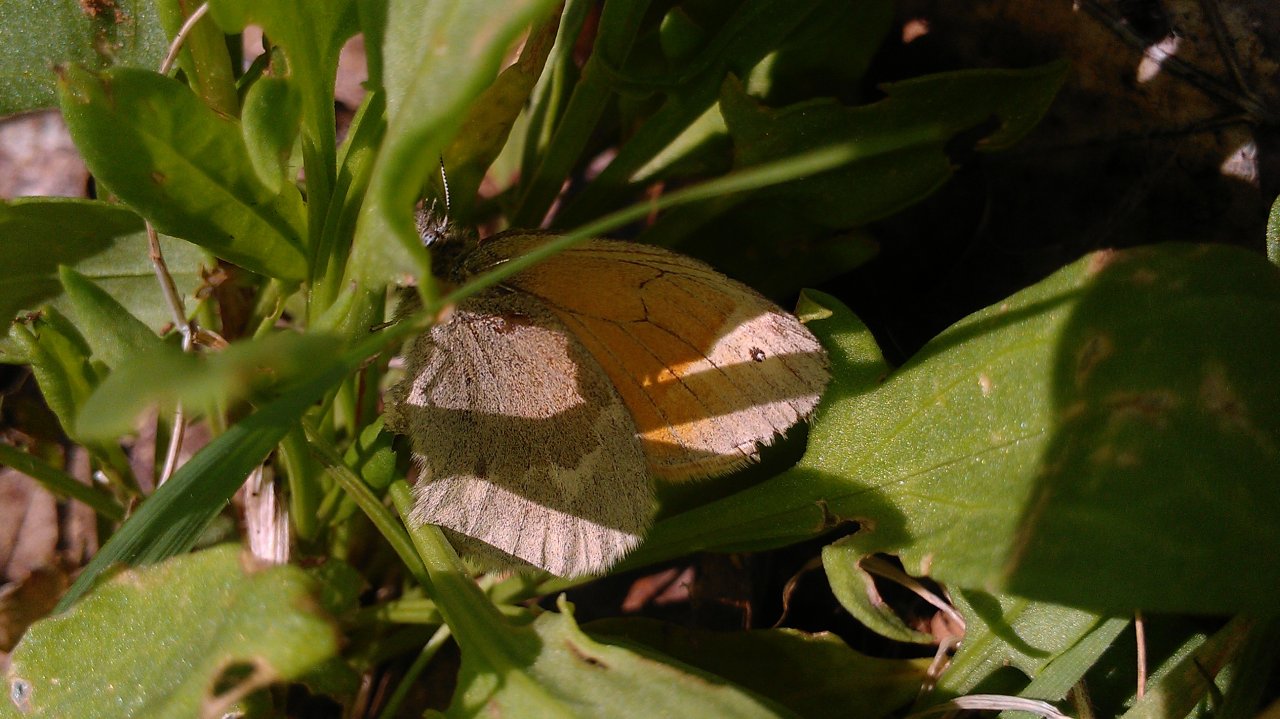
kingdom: Animalia
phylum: Arthropoda
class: Insecta
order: Lepidoptera
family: Nymphalidae
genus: Coenonympha
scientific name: Coenonympha tullia
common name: Large Heath
